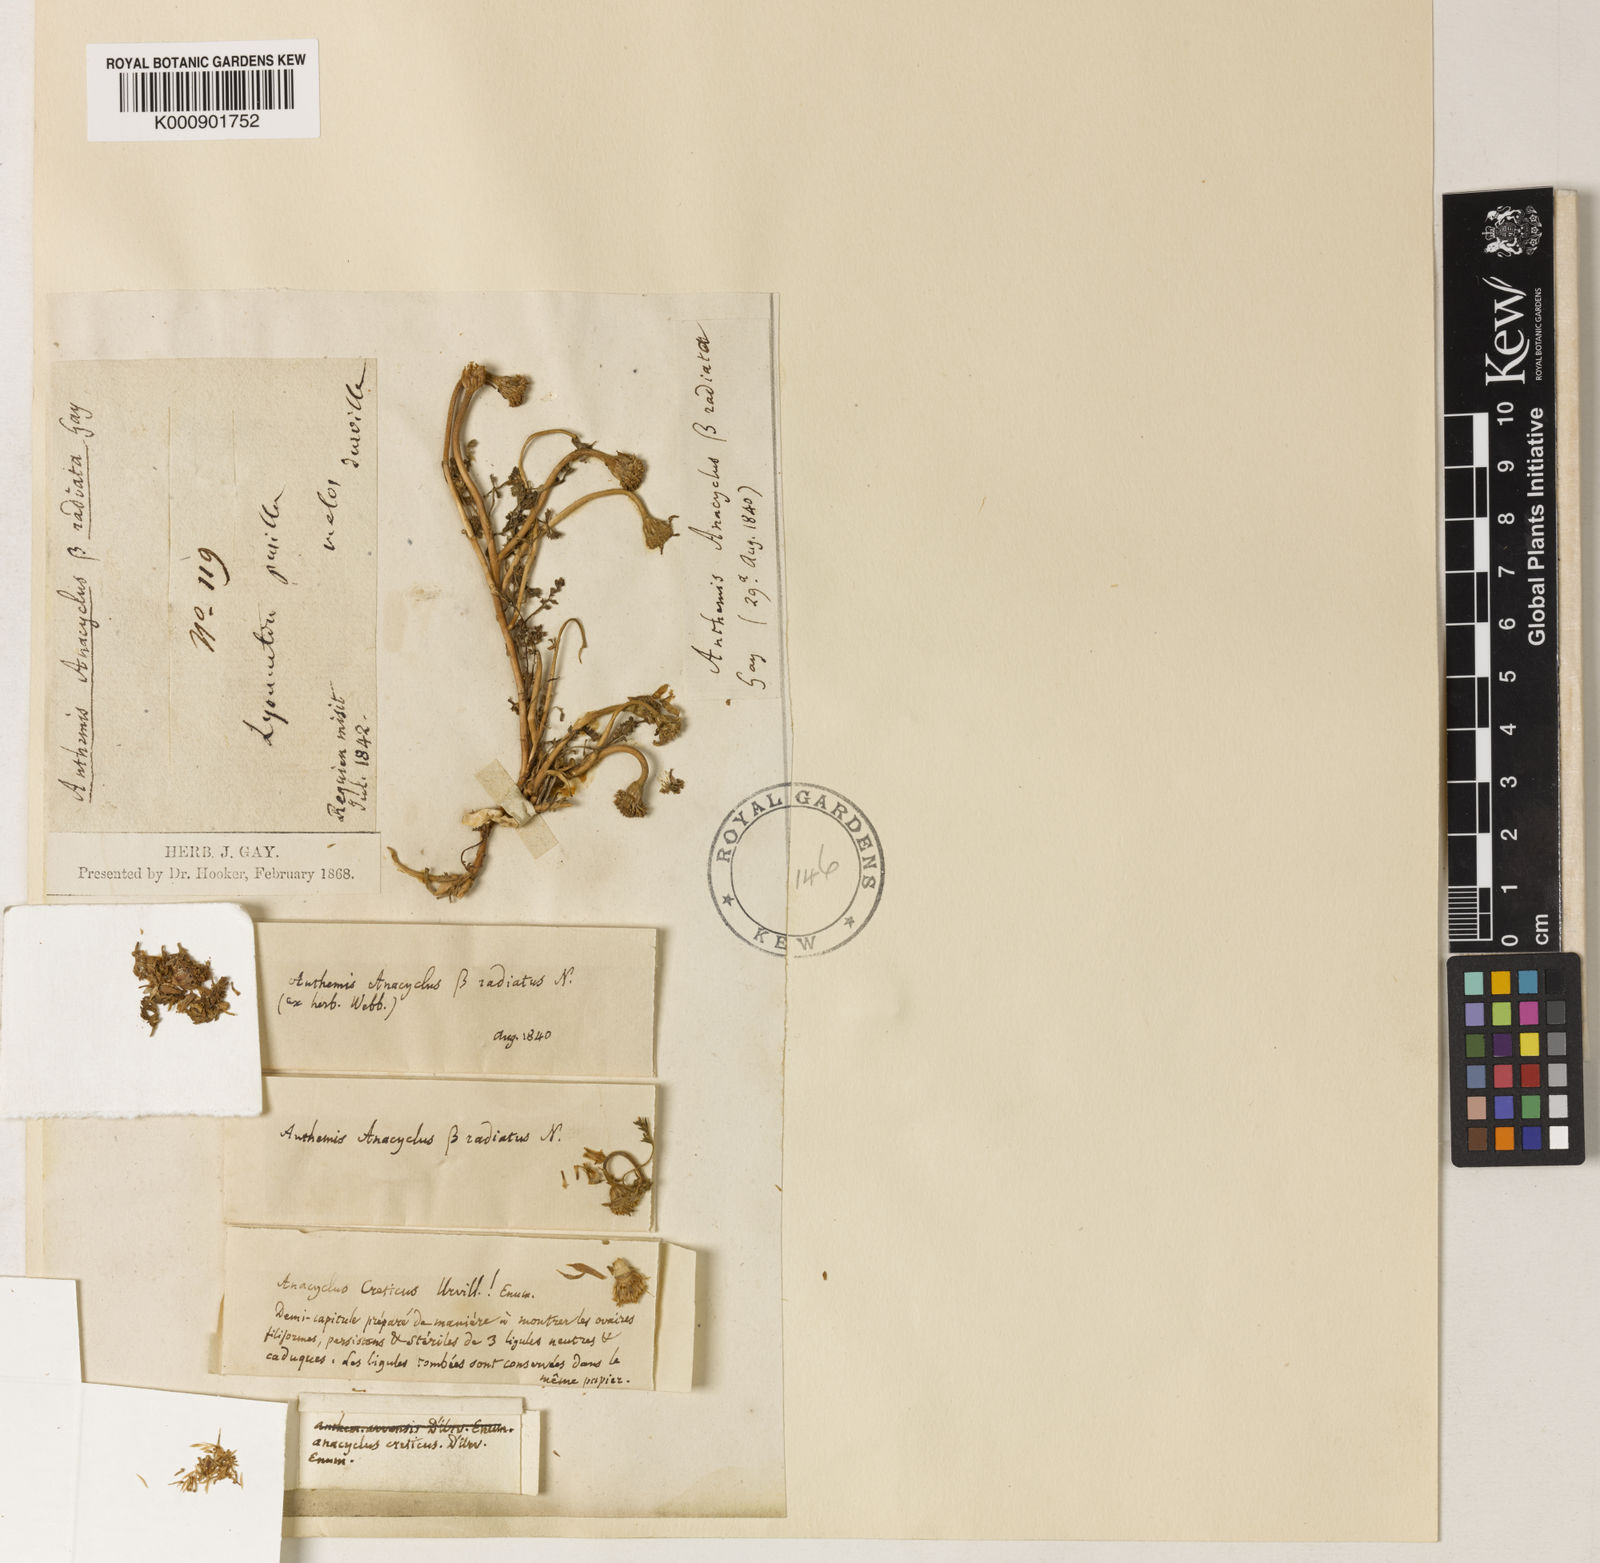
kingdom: Plantae
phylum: Tracheophyta
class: Magnoliopsida
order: Asterales
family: Asteraceae
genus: Anthemis
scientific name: Anthemis cretica
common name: Mountain dog-daisy
